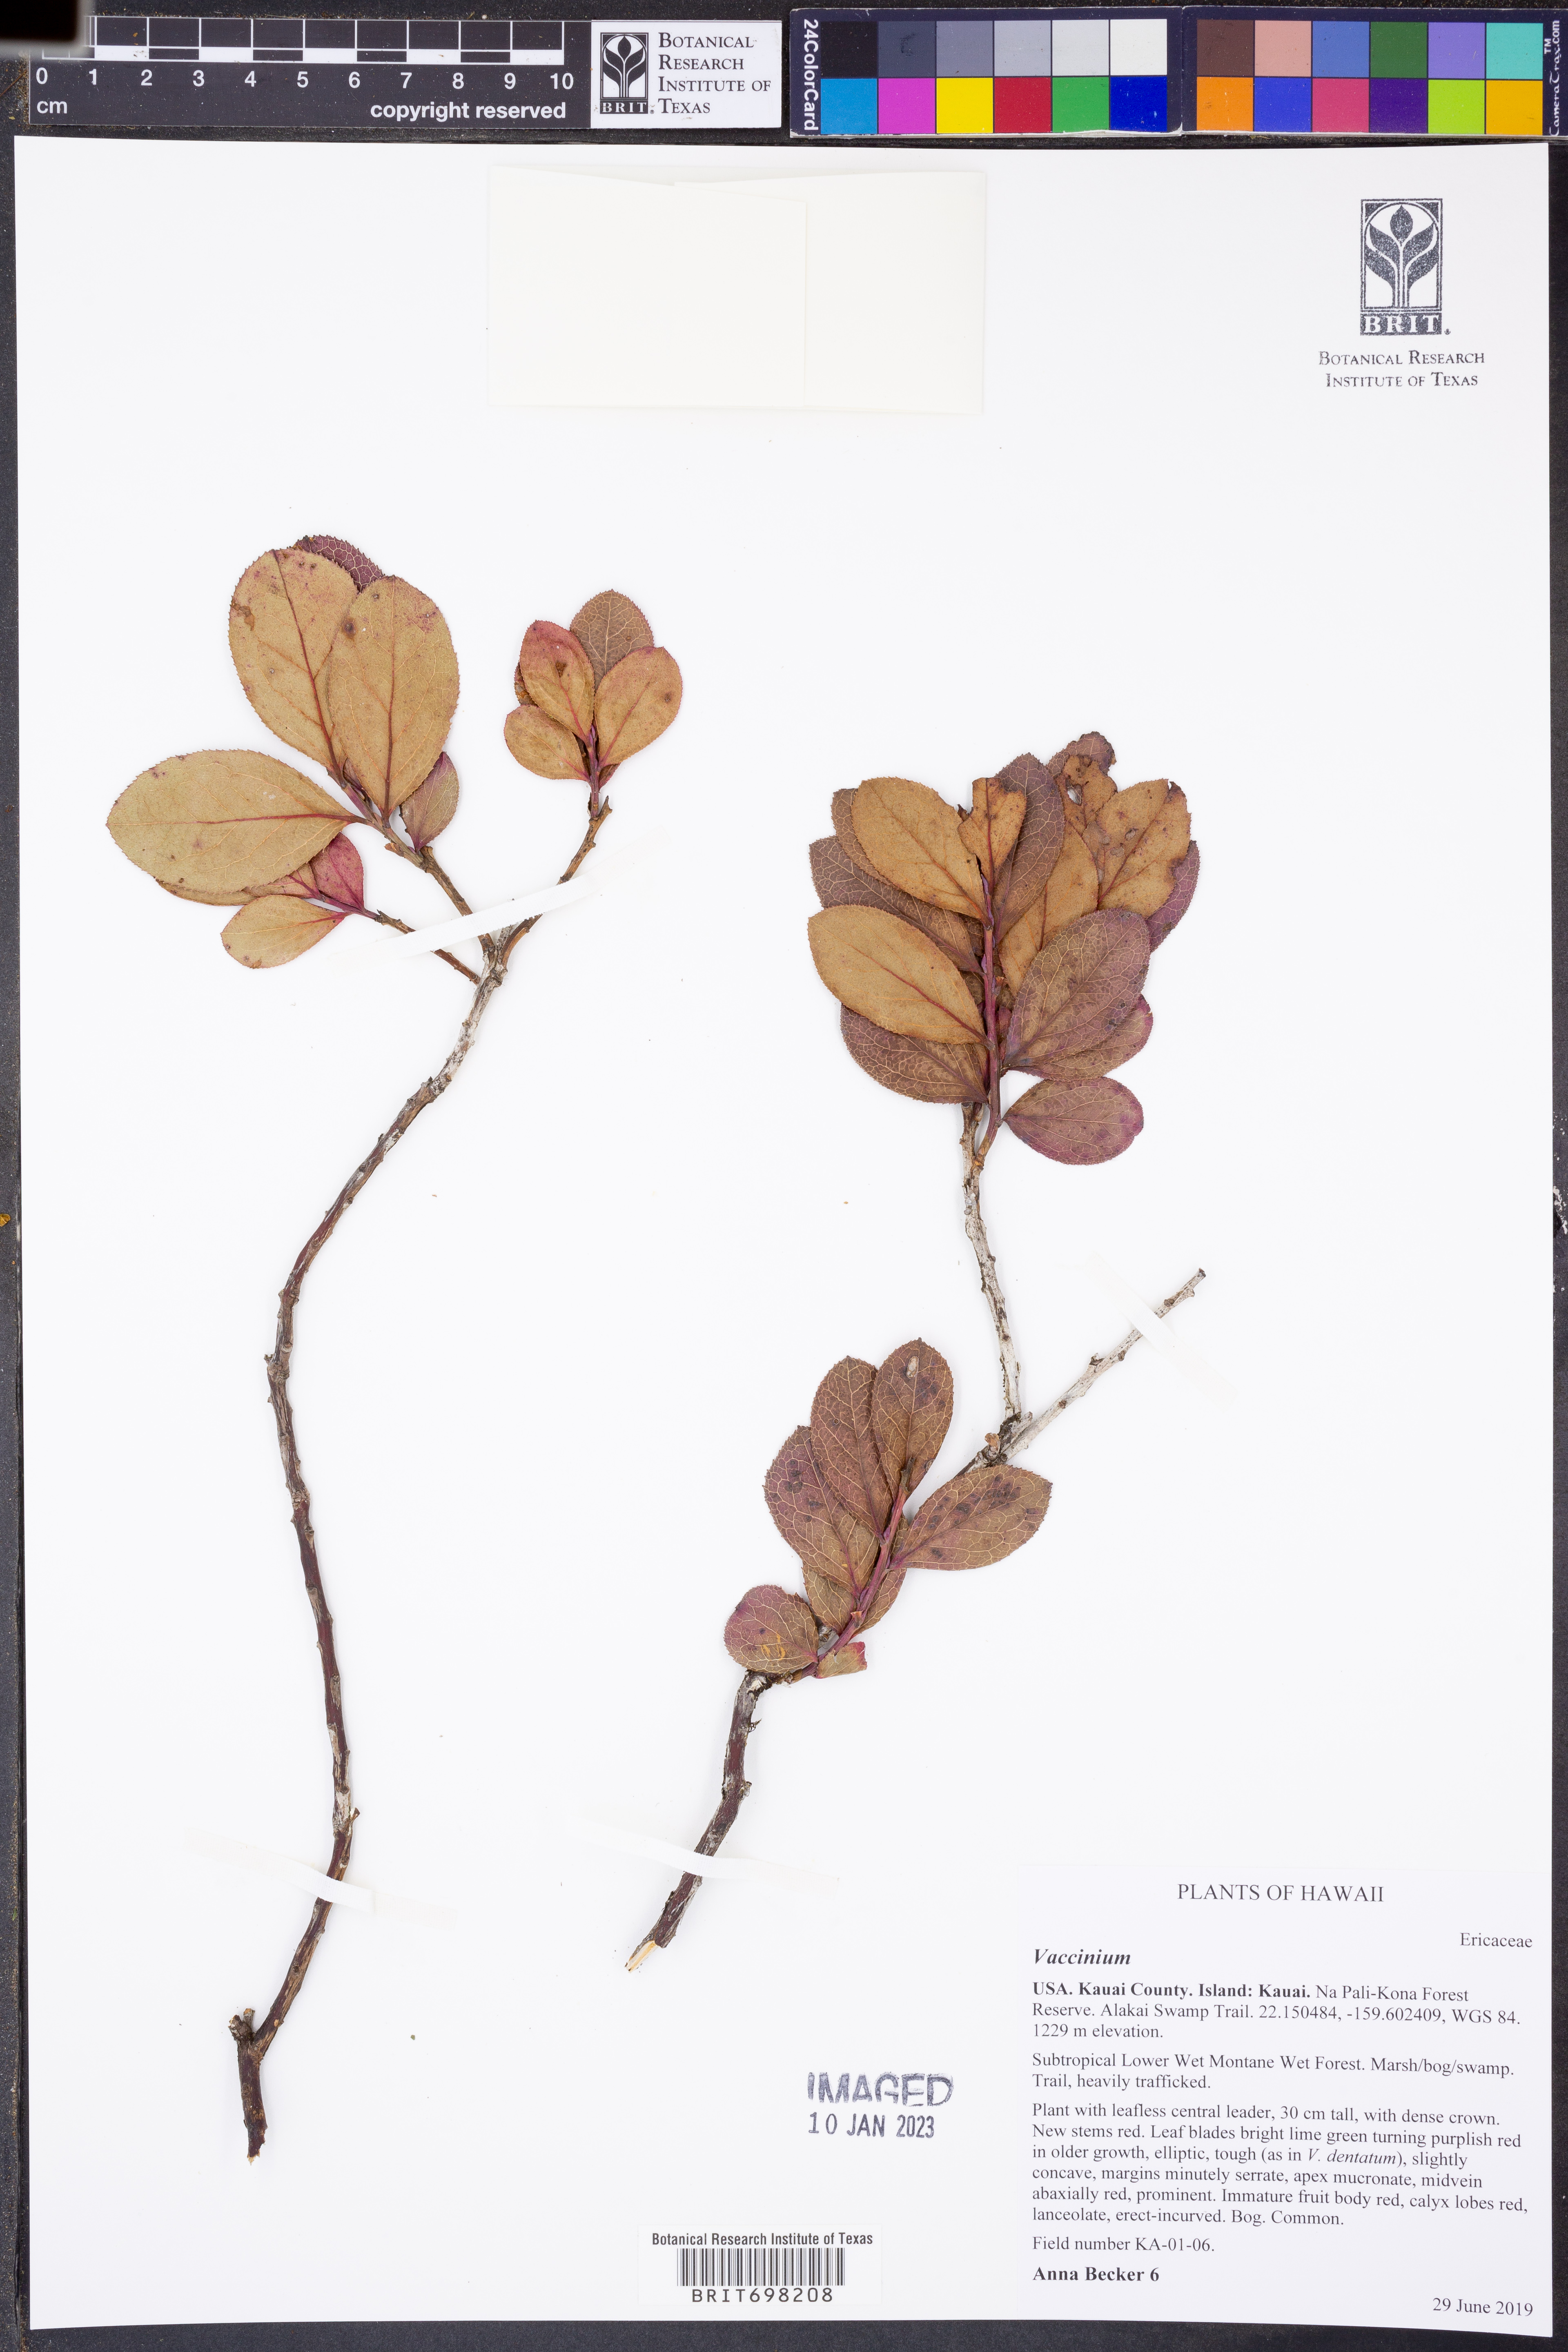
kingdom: Plantae
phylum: Tracheophyta
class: Magnoliopsida
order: Ericales
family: Ericaceae
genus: Vaccinium
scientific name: Vaccinium
